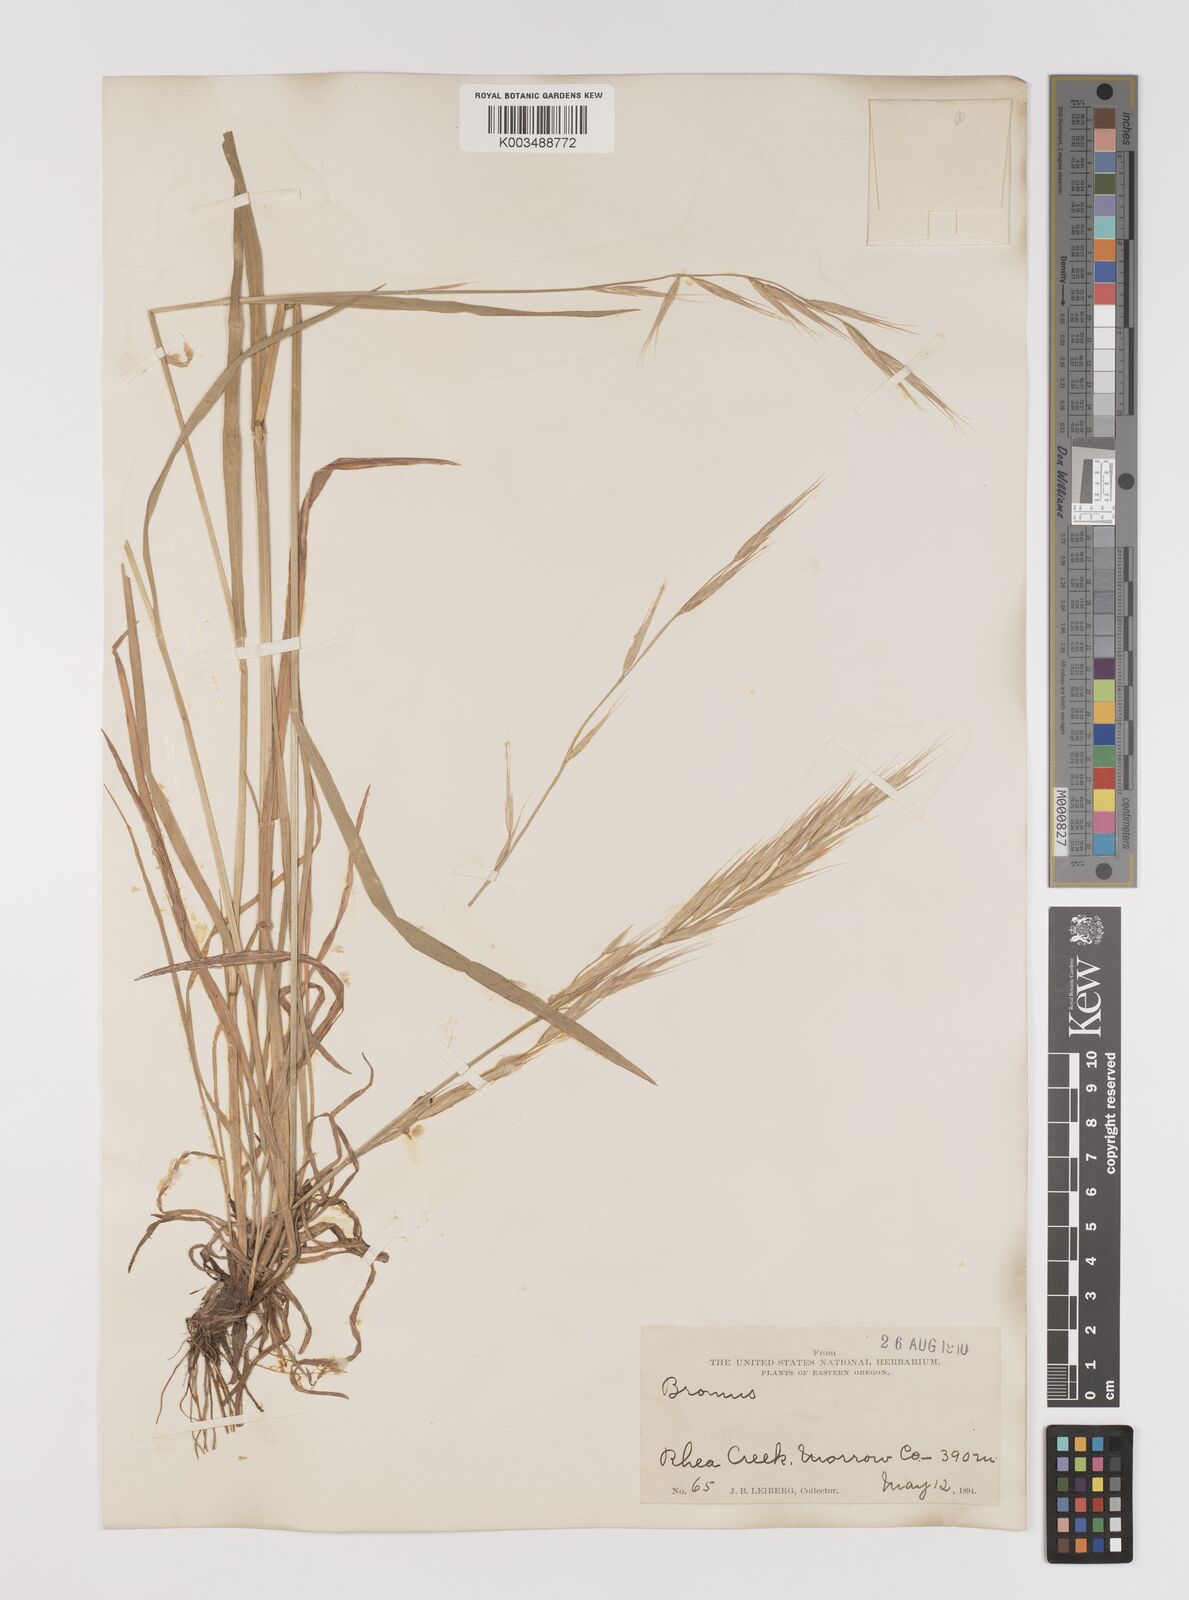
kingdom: Plantae
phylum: Tracheophyta
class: Liliopsida
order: Poales
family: Poaceae
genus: Bromus
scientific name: Bromus
